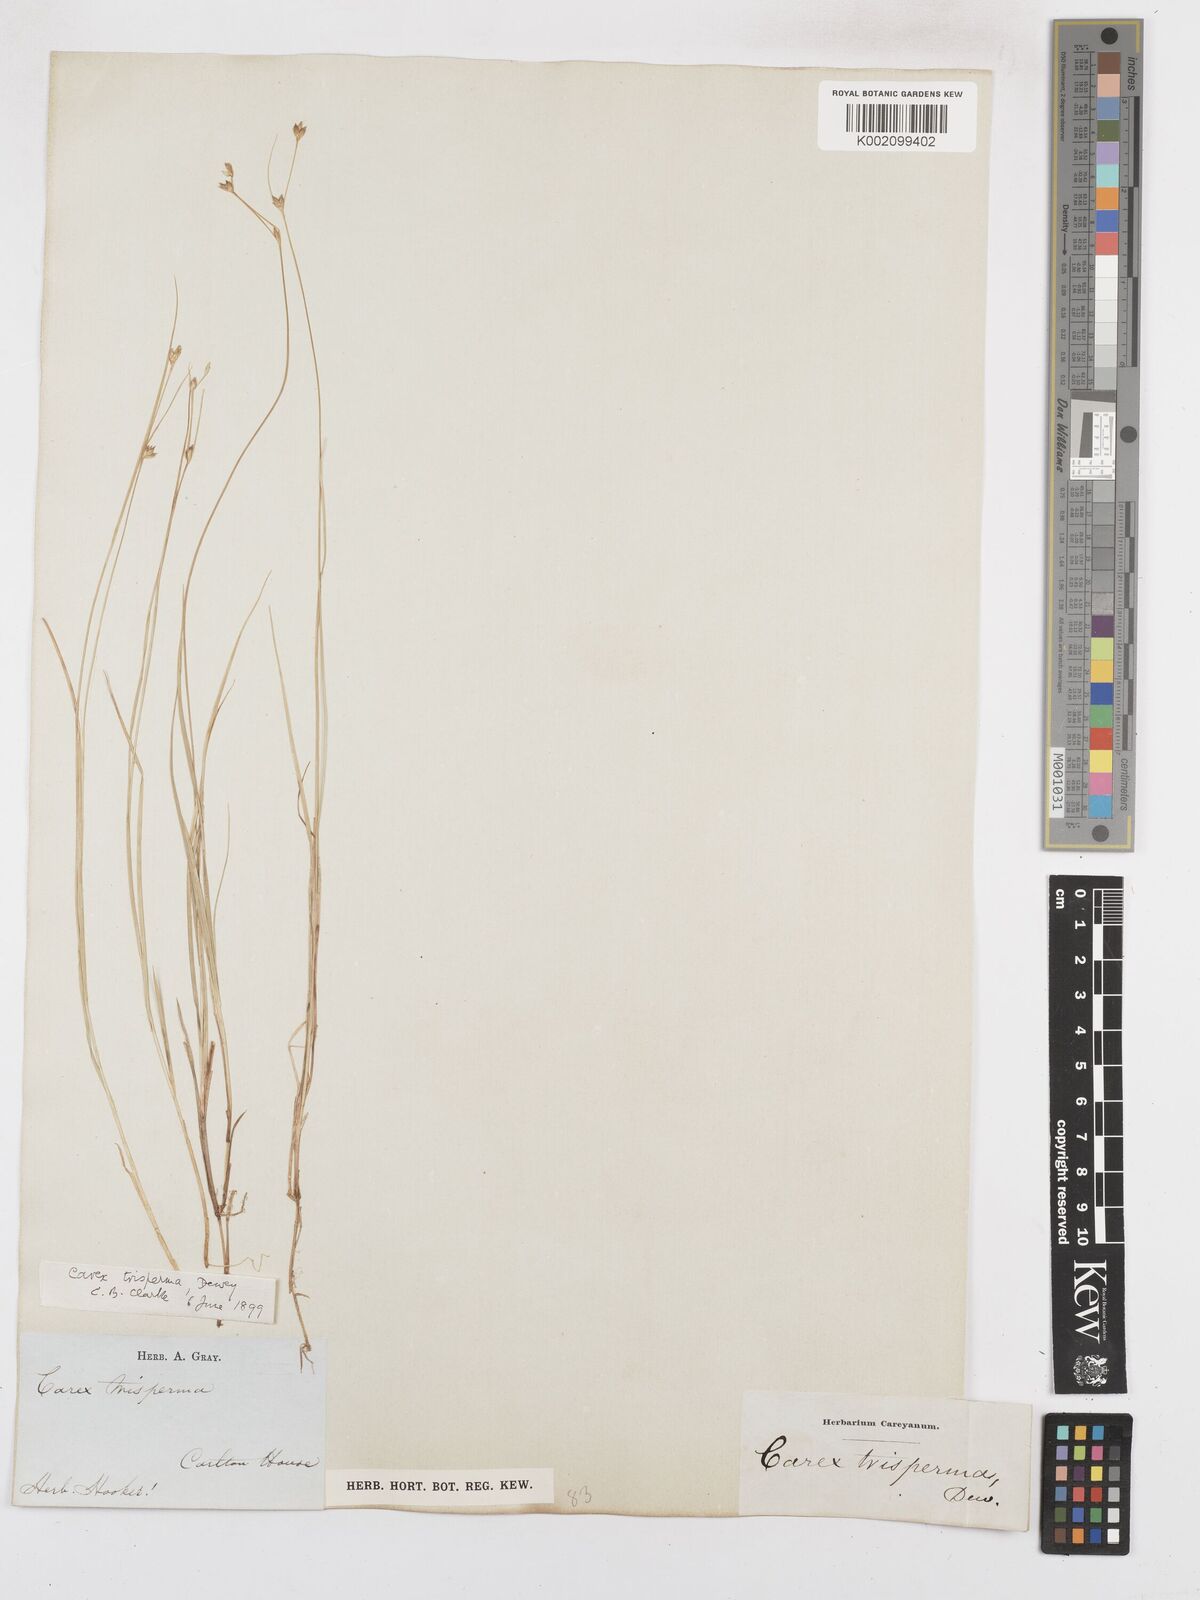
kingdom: Plantae
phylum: Tracheophyta
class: Liliopsida
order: Poales
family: Cyperaceae
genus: Carex
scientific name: Carex trisperma
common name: Three-seeded sedge
